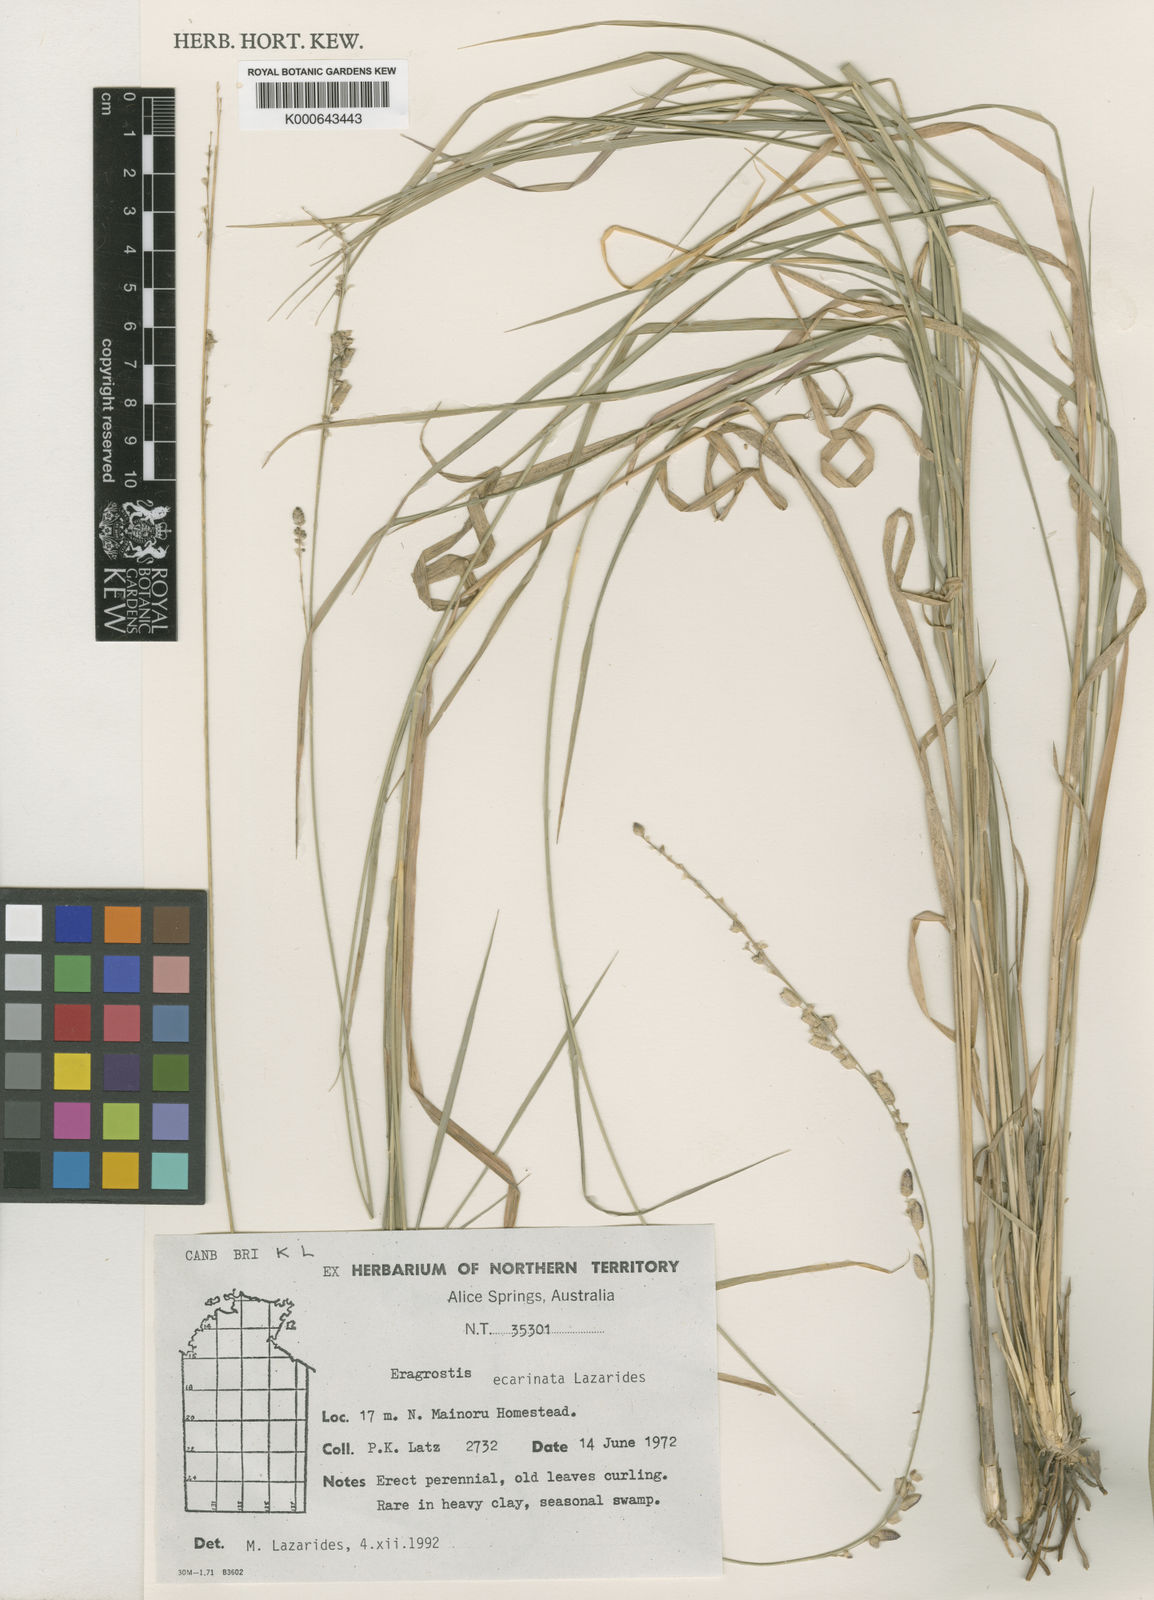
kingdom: Plantae
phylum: Tracheophyta
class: Liliopsida
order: Poales
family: Poaceae
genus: Eragrostis
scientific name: Eragrostis ecarinata
